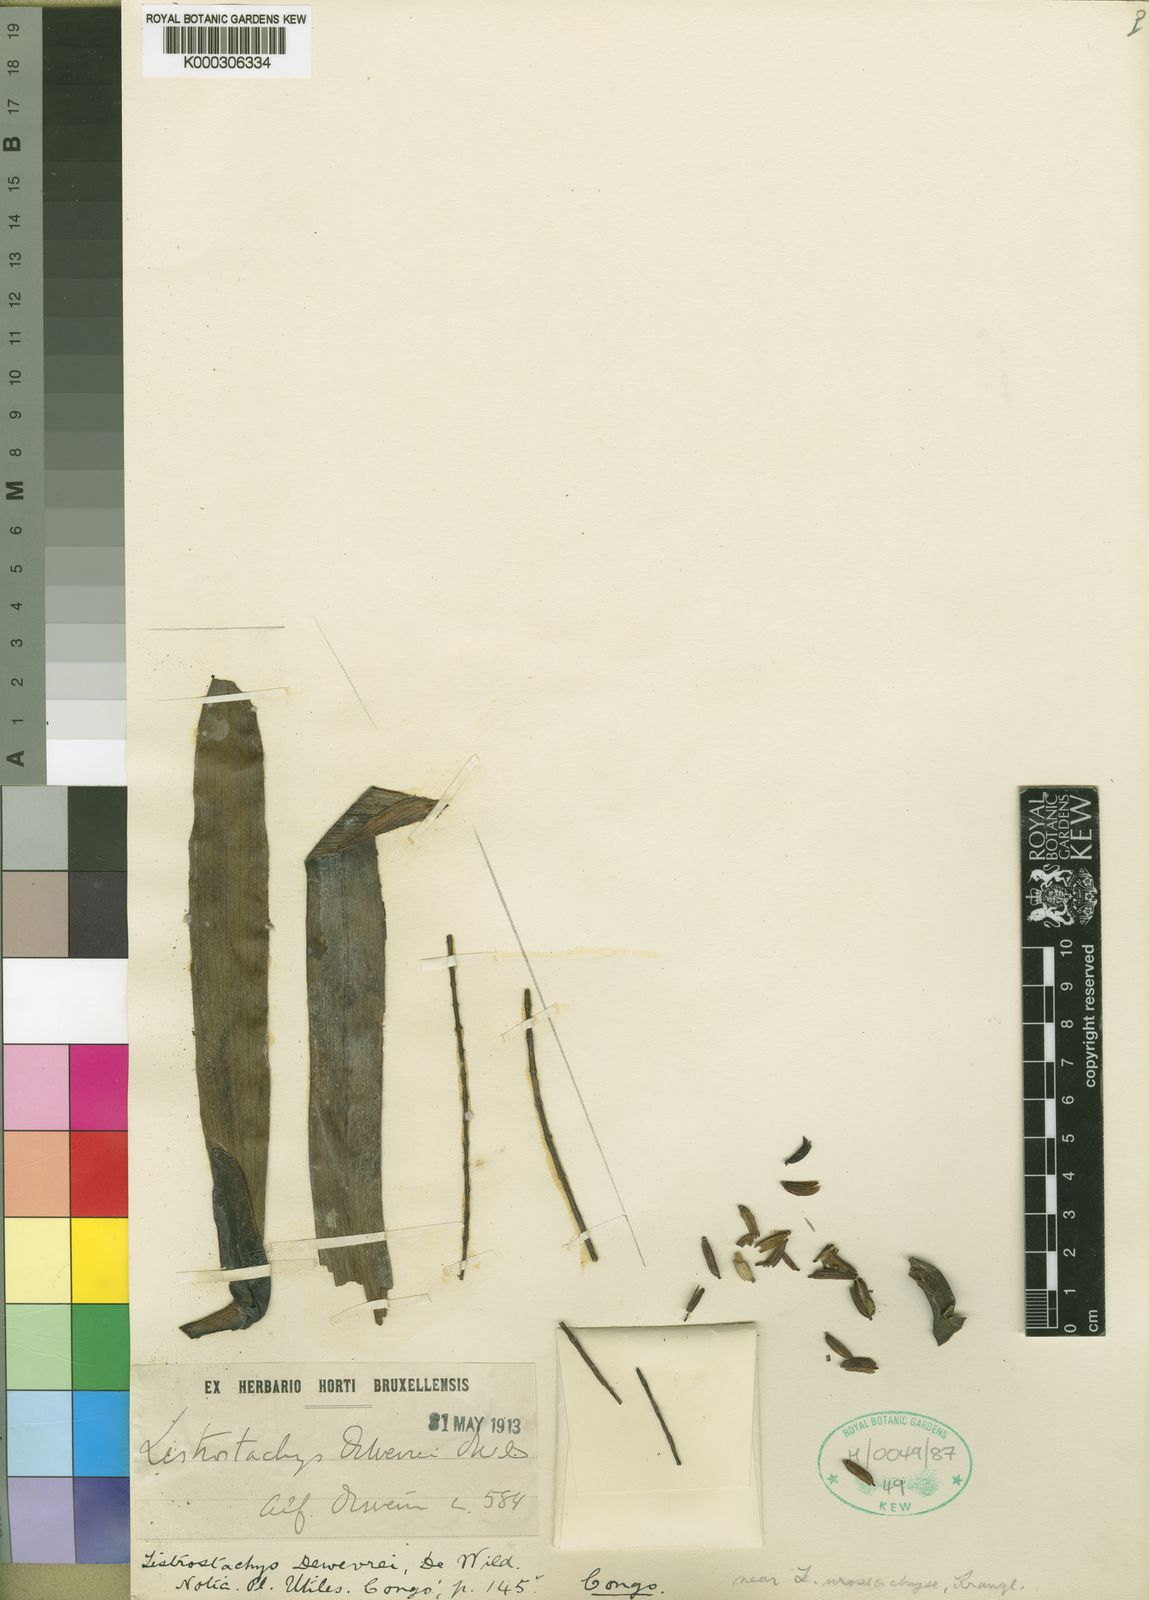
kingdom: Plantae
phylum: Tracheophyta
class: Liliopsida
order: Asparagales
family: Orchidaceae
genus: Diaphananthe
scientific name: Diaphananthe odoratissima
